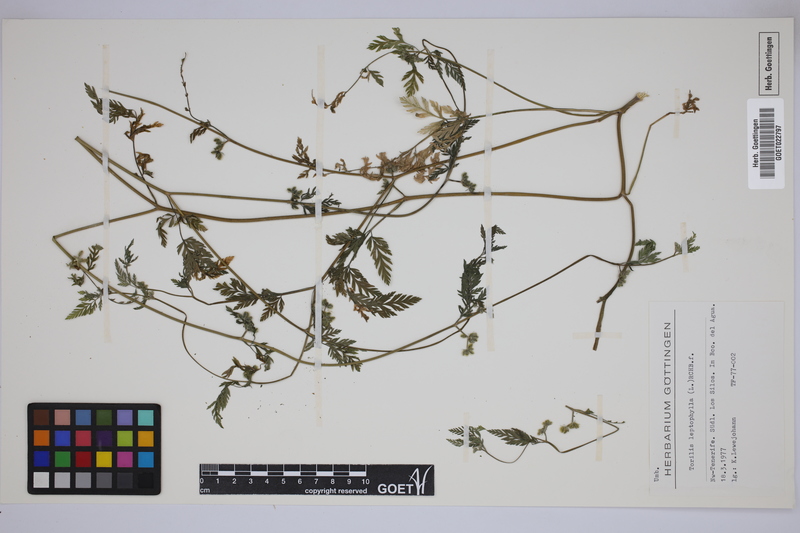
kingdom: Plantae
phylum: Tracheophyta
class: Magnoliopsida
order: Apiales
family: Apiaceae
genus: Torilis
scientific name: Torilis leptophylla
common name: Bristlefruit hedgeparsley
